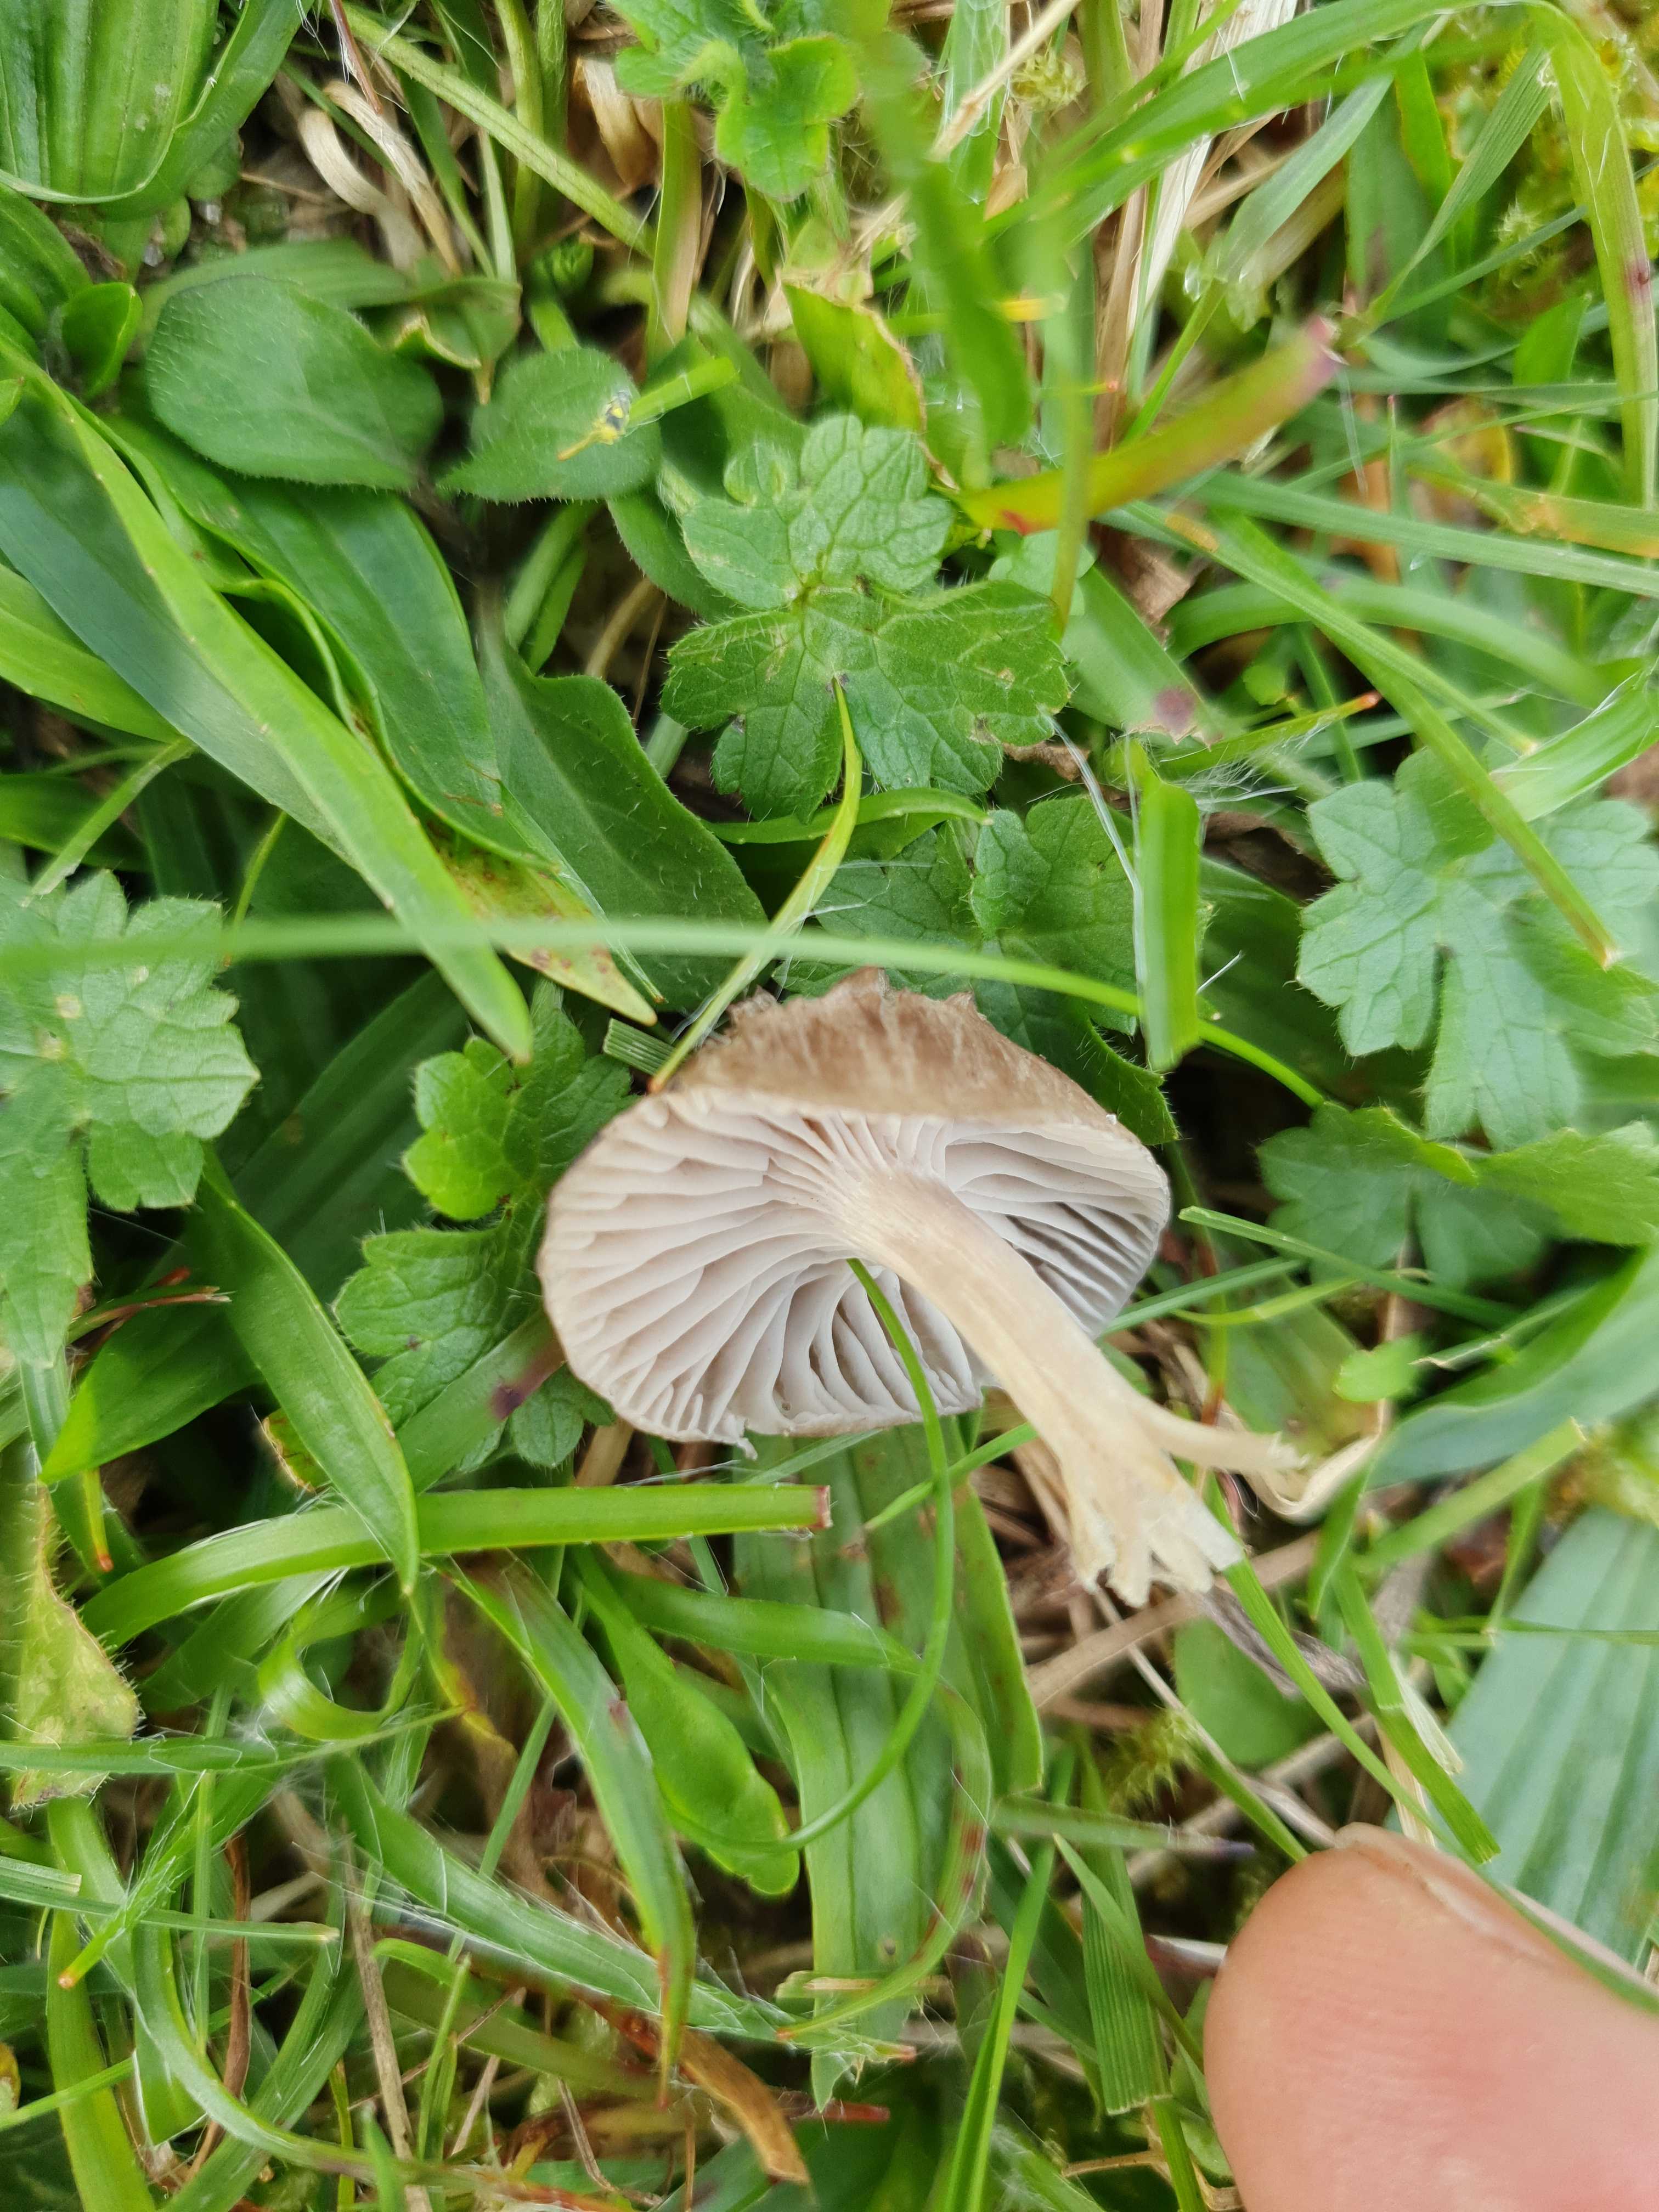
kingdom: Fungi
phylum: Basidiomycota
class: Agaricomycetes
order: Agaricales
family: Hygrophoraceae
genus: Cuphophyllus
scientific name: Cuphophyllus flavipes
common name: gulfodet vokshat
